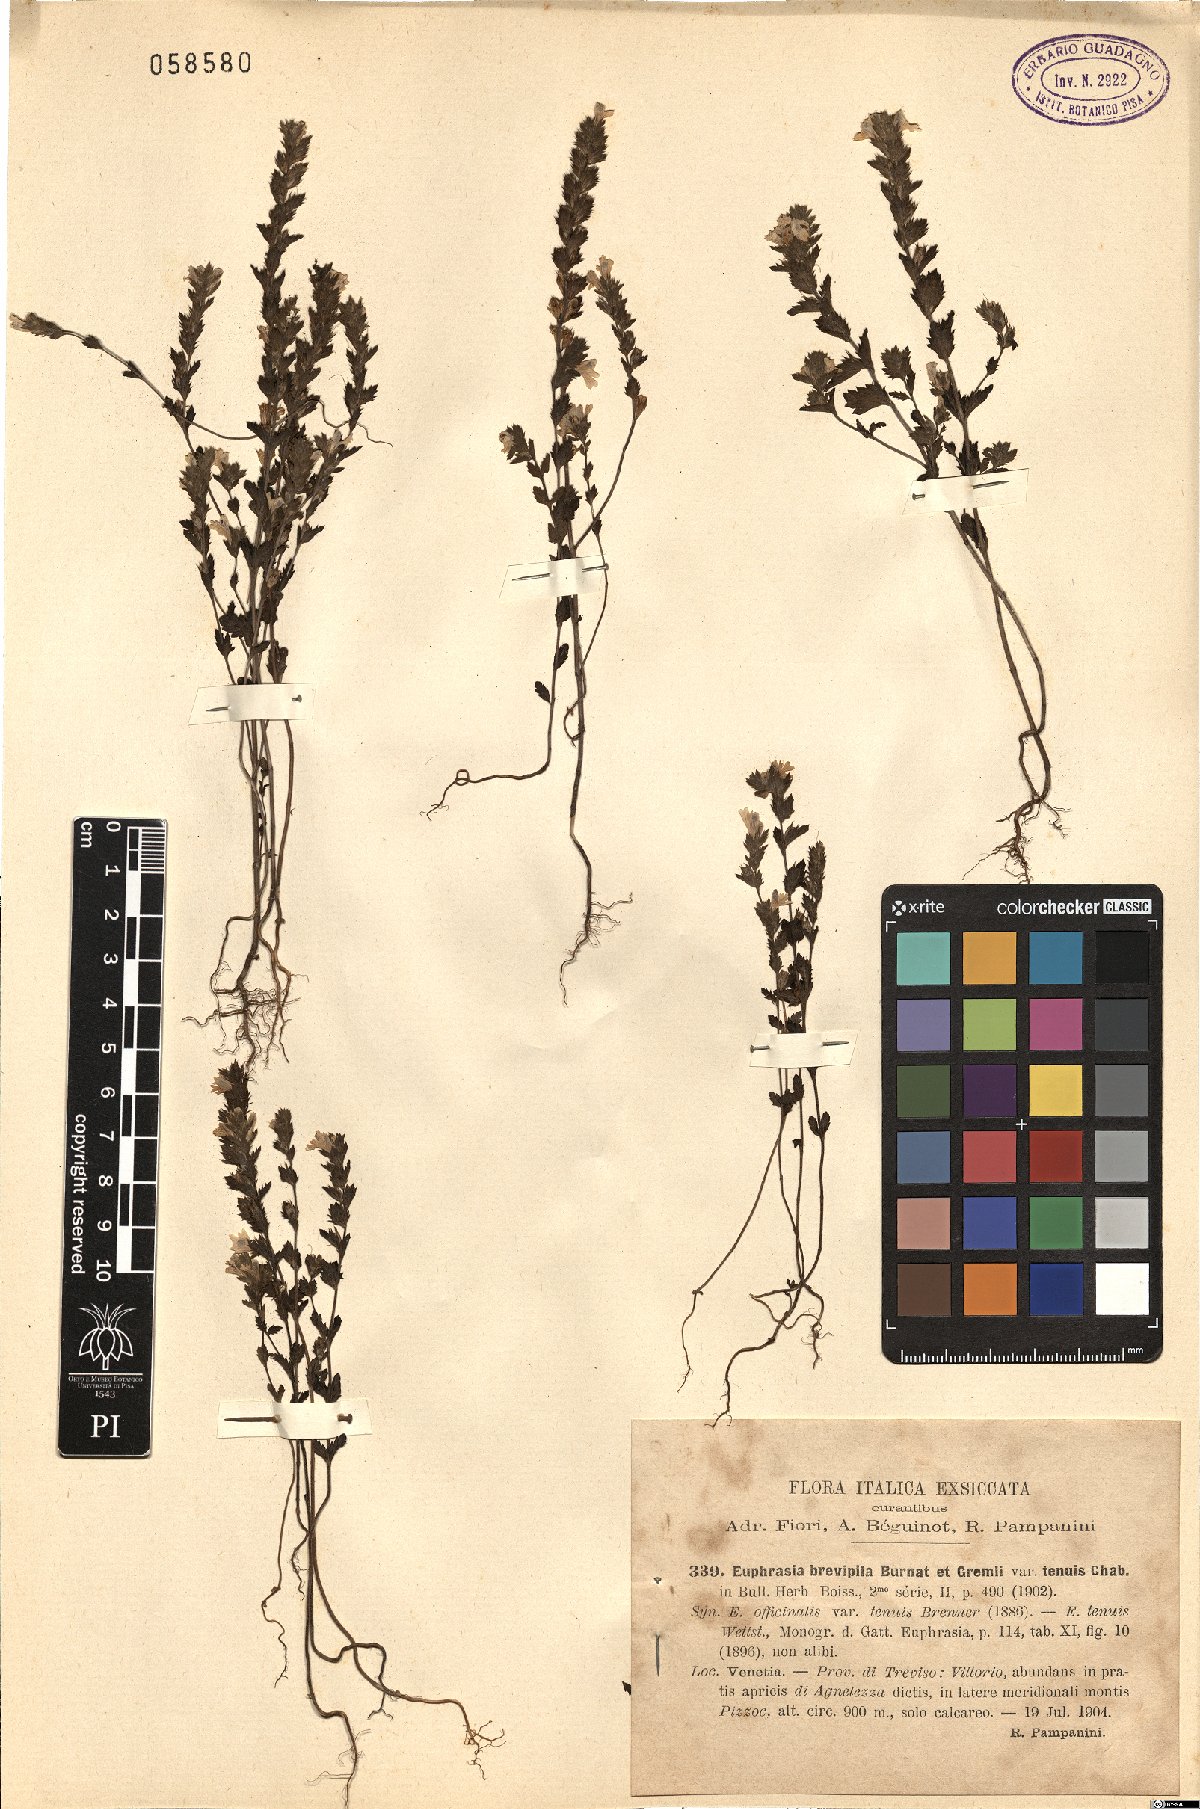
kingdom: Plantae
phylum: Tracheophyta
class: Magnoliopsida
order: Lamiales
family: Orobanchaceae
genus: Euphrasia
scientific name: Euphrasia vernalis
